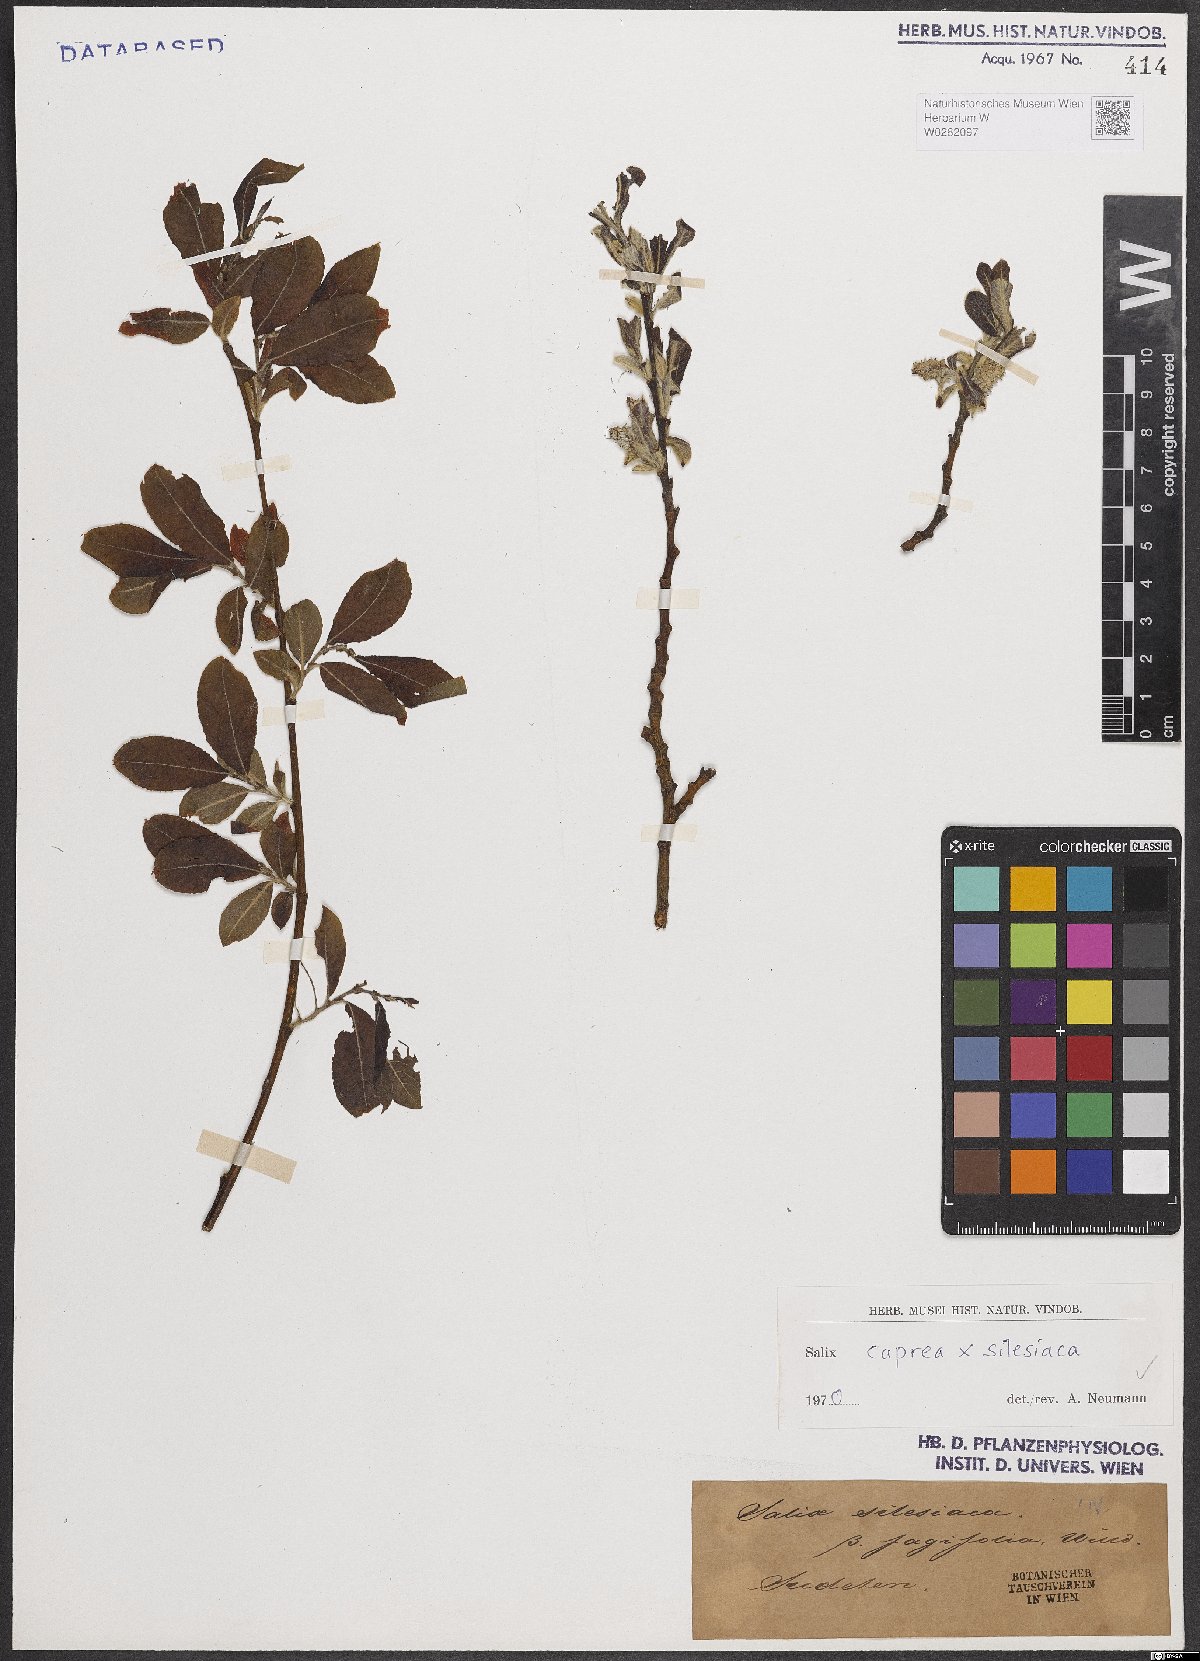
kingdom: Plantae
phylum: Tracheophyta
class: Magnoliopsida
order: Malpighiales
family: Salicaceae
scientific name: Salicaceae
